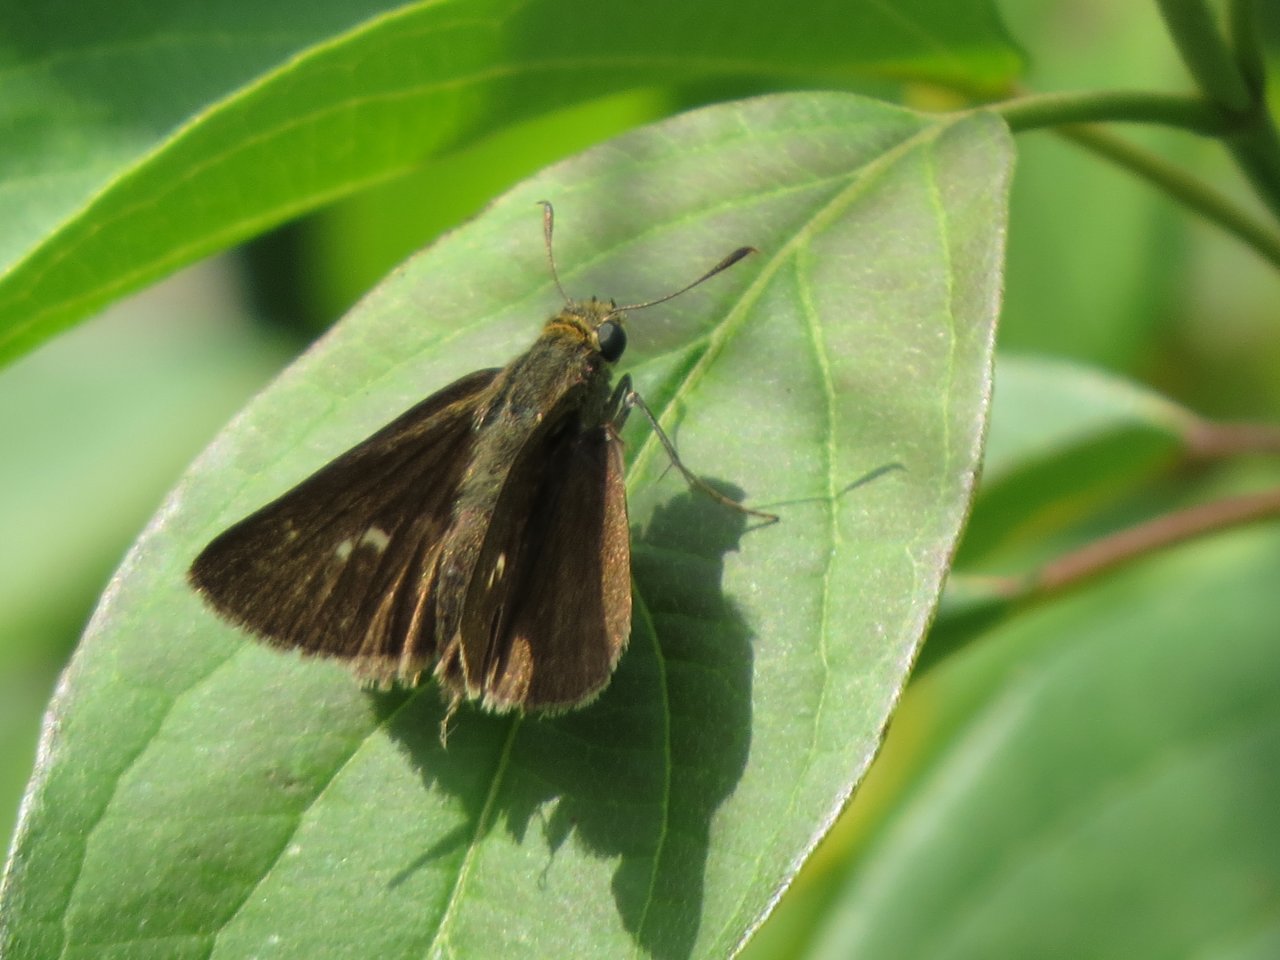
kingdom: Animalia
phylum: Arthropoda
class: Insecta
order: Lepidoptera
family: Hesperiidae
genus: Euphyes
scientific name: Euphyes vestris
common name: Dun Skipper
